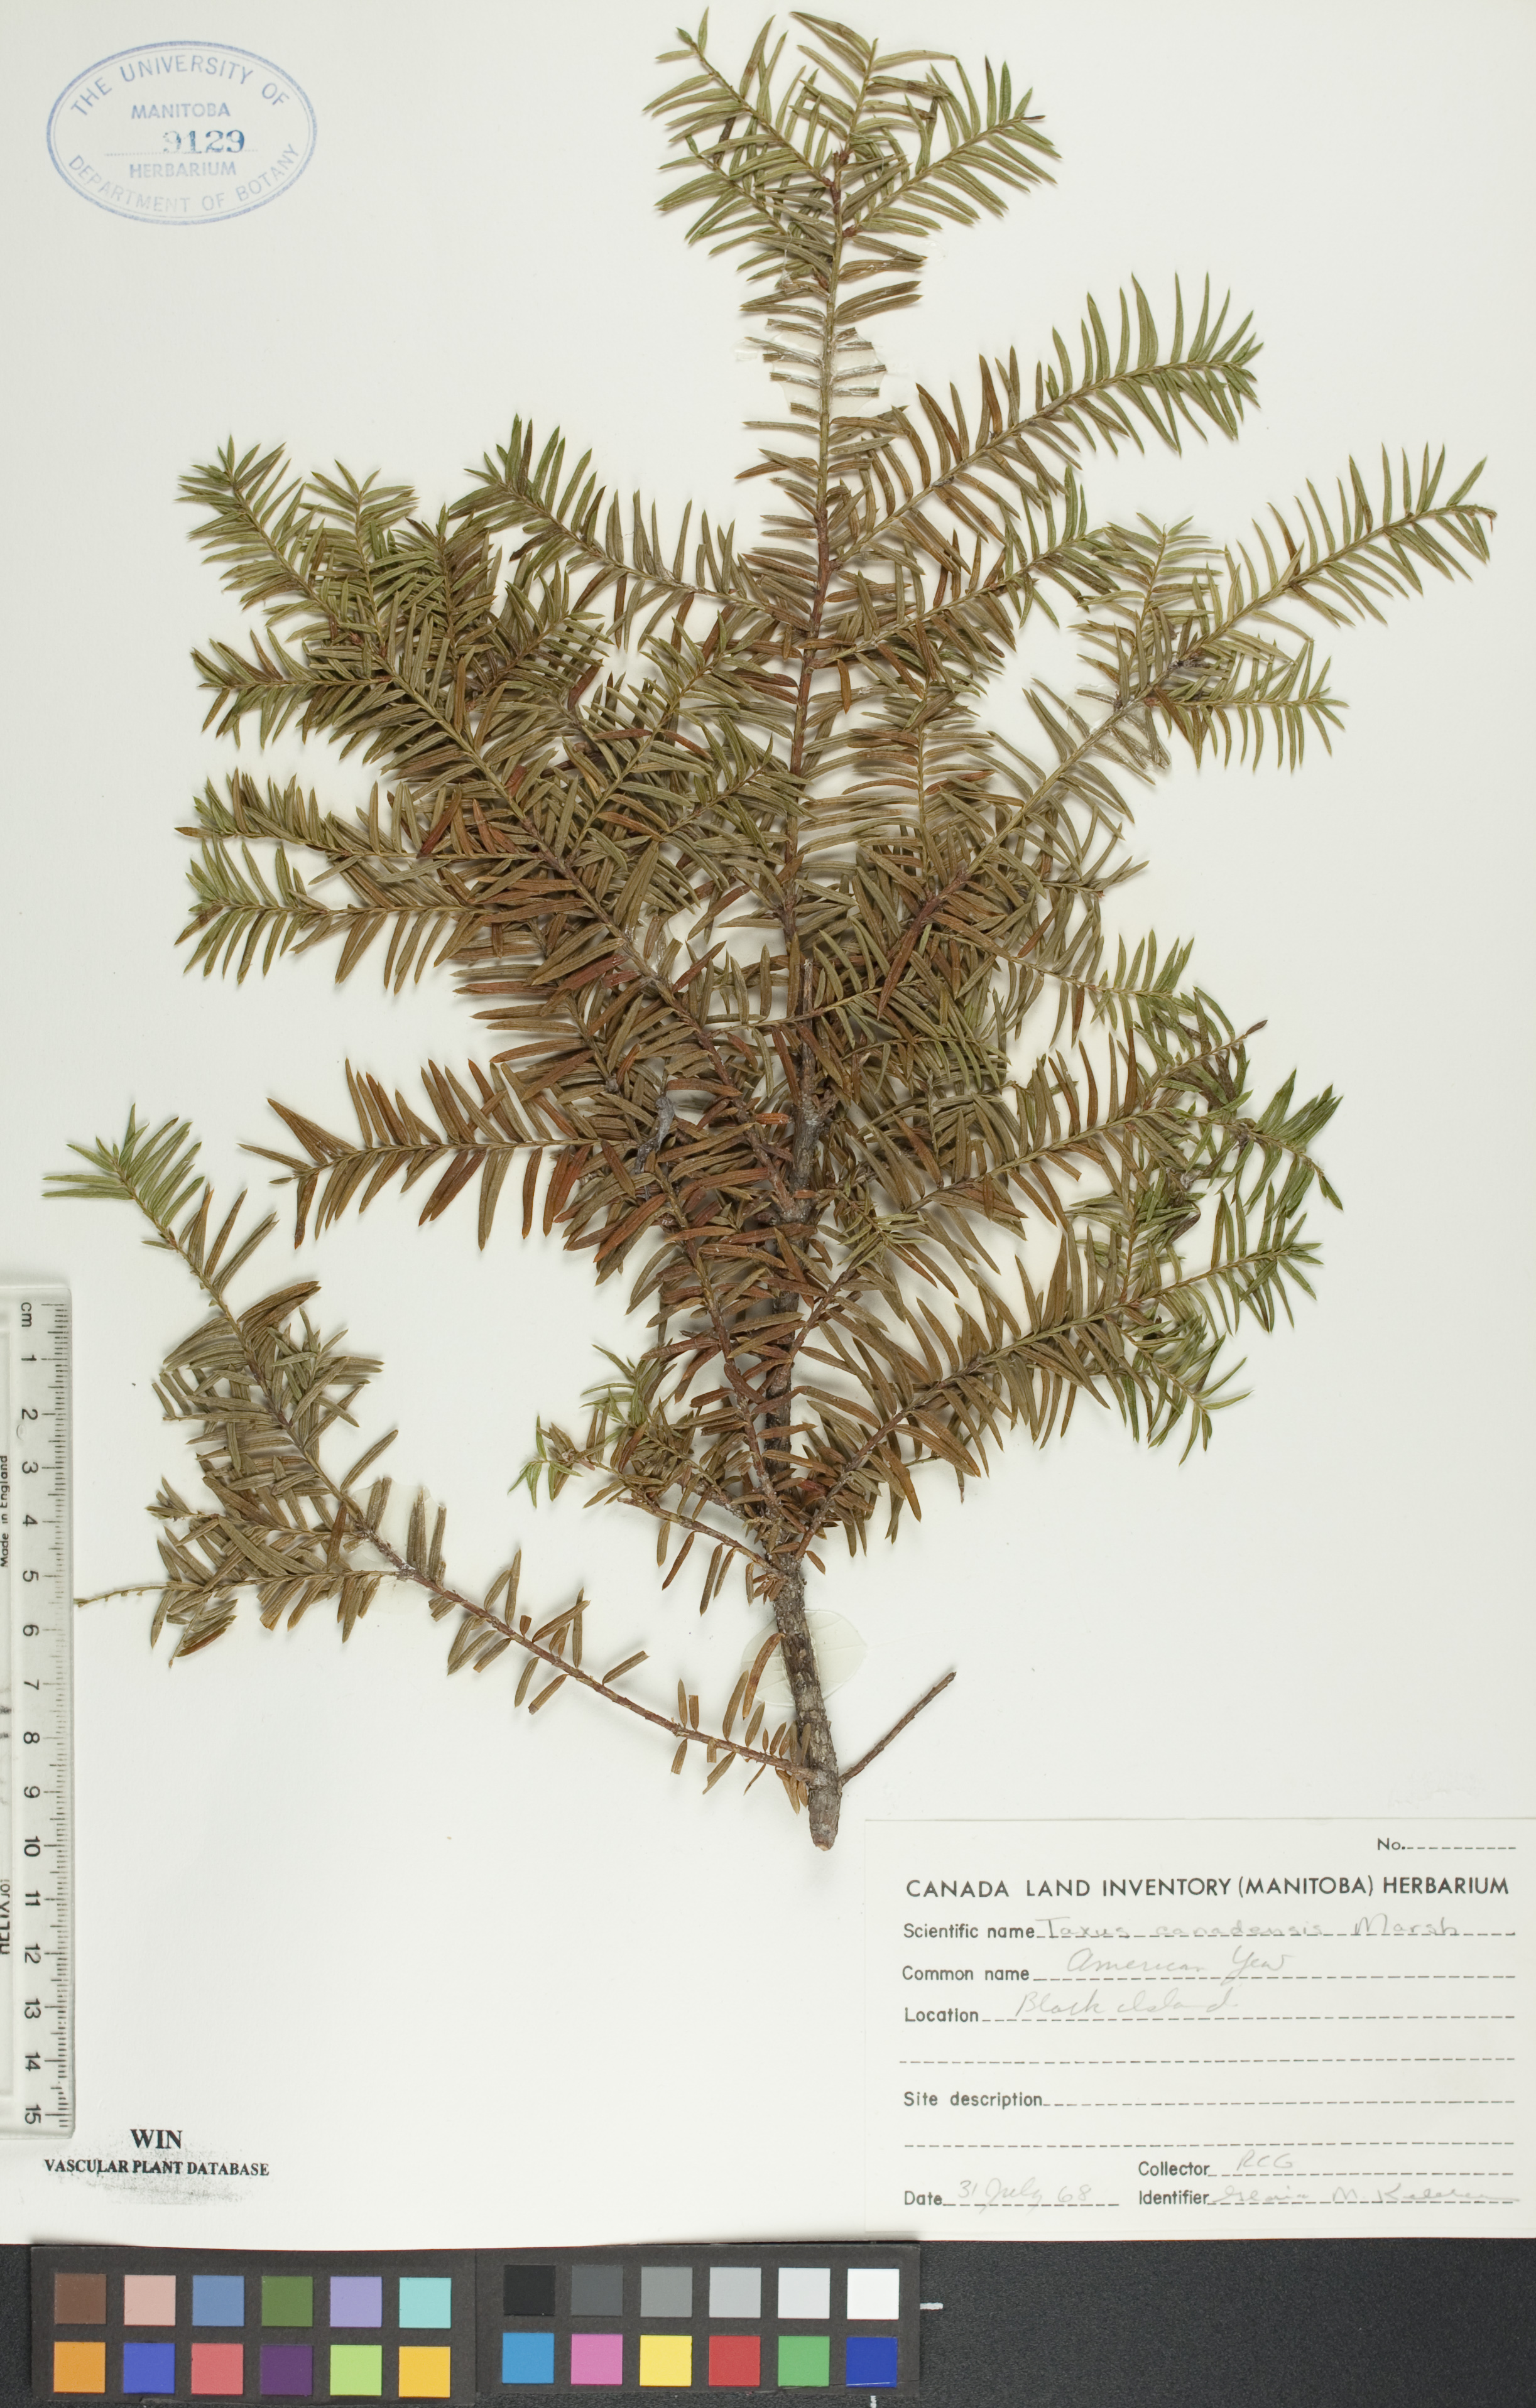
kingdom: Plantae
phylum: Tracheophyta
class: Pinopsida
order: Pinales
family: Taxaceae
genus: Taxus
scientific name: Taxus canadensis
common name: American yew
